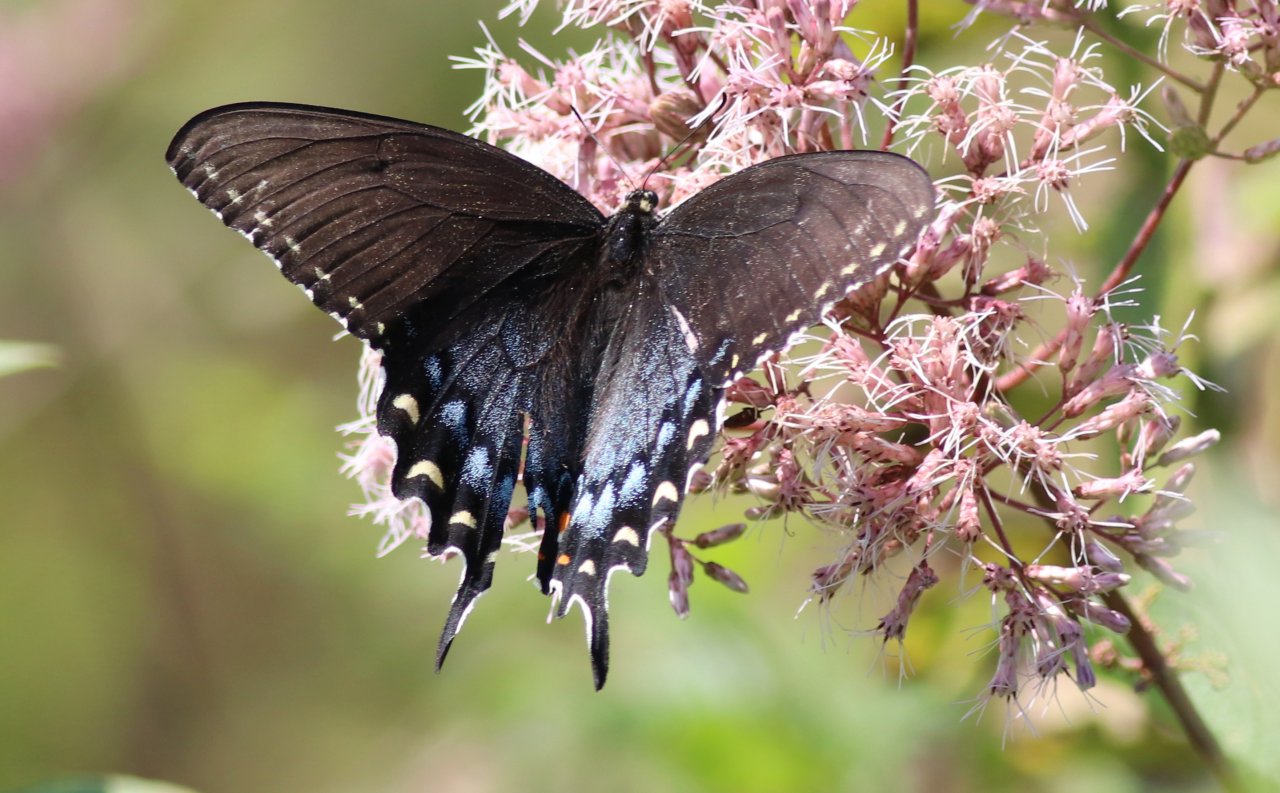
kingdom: Animalia
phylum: Arthropoda
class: Insecta
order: Lepidoptera
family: Papilionidae
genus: Pterourus
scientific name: Pterourus glaucus
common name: Eastern Tiger Swallowtail
